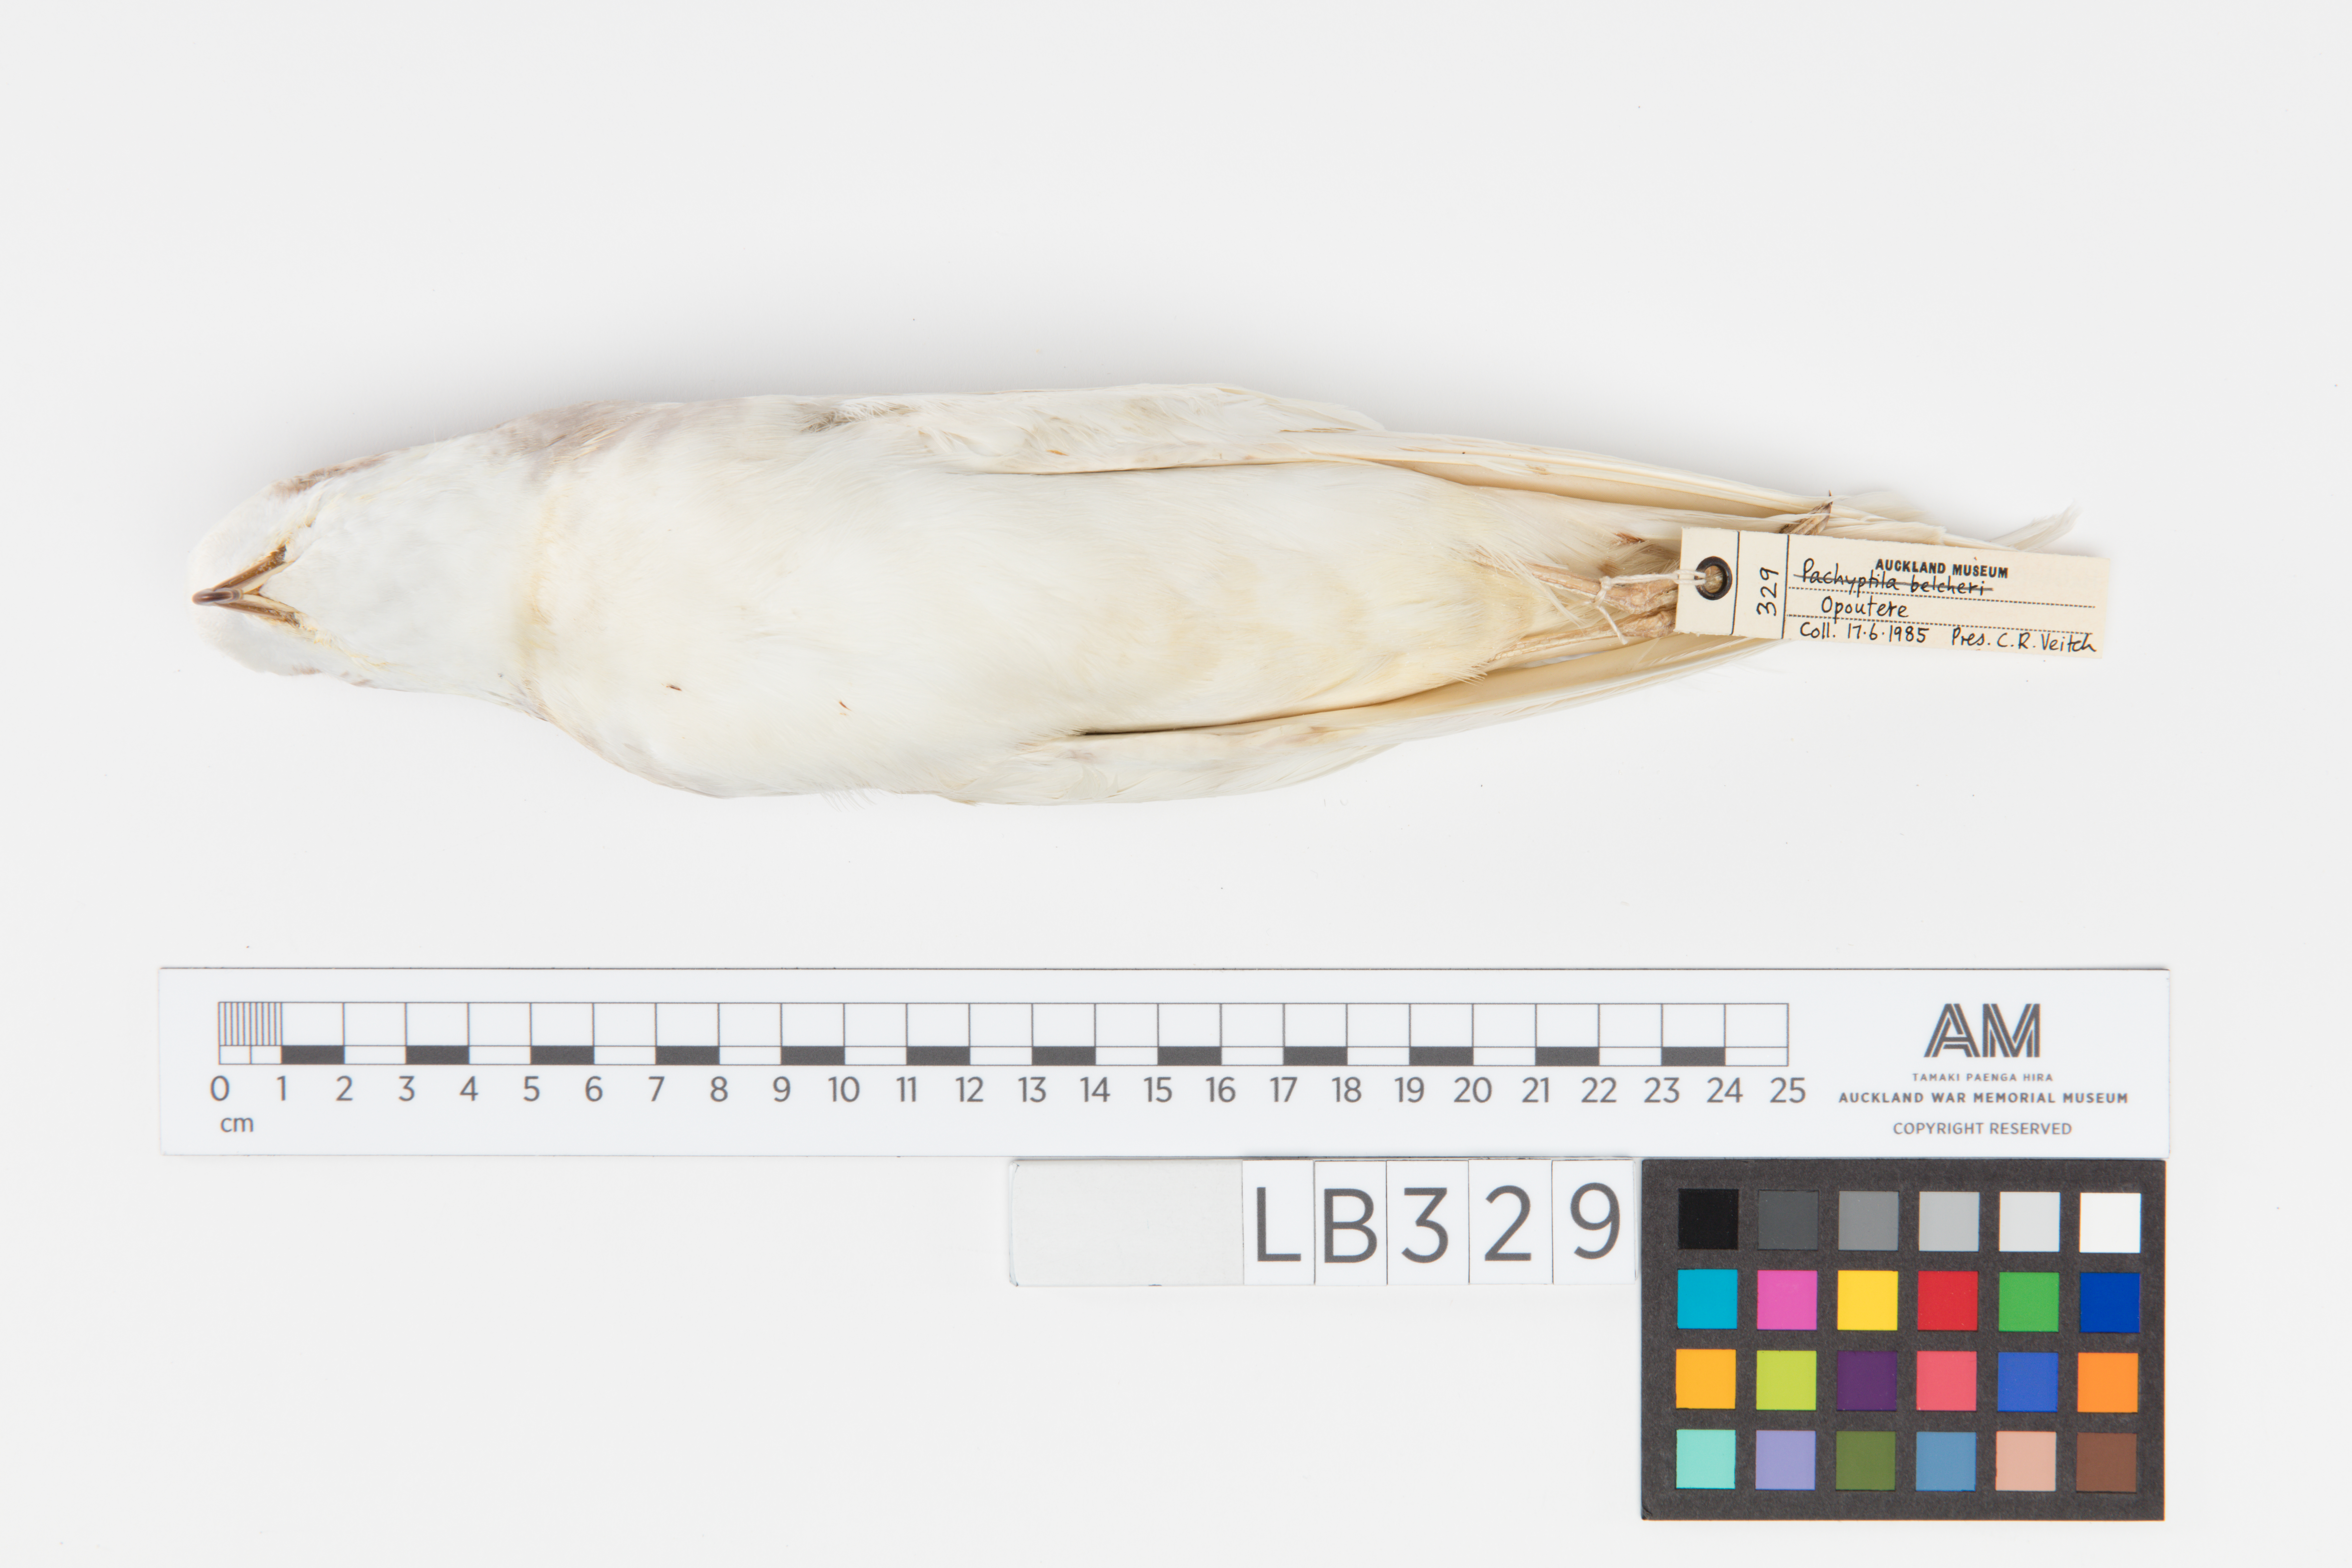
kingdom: Animalia
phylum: Chordata
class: Aves
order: Procellariiformes
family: Procellariidae
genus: Halobaena
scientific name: Halobaena caerulea
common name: Blue petrel
